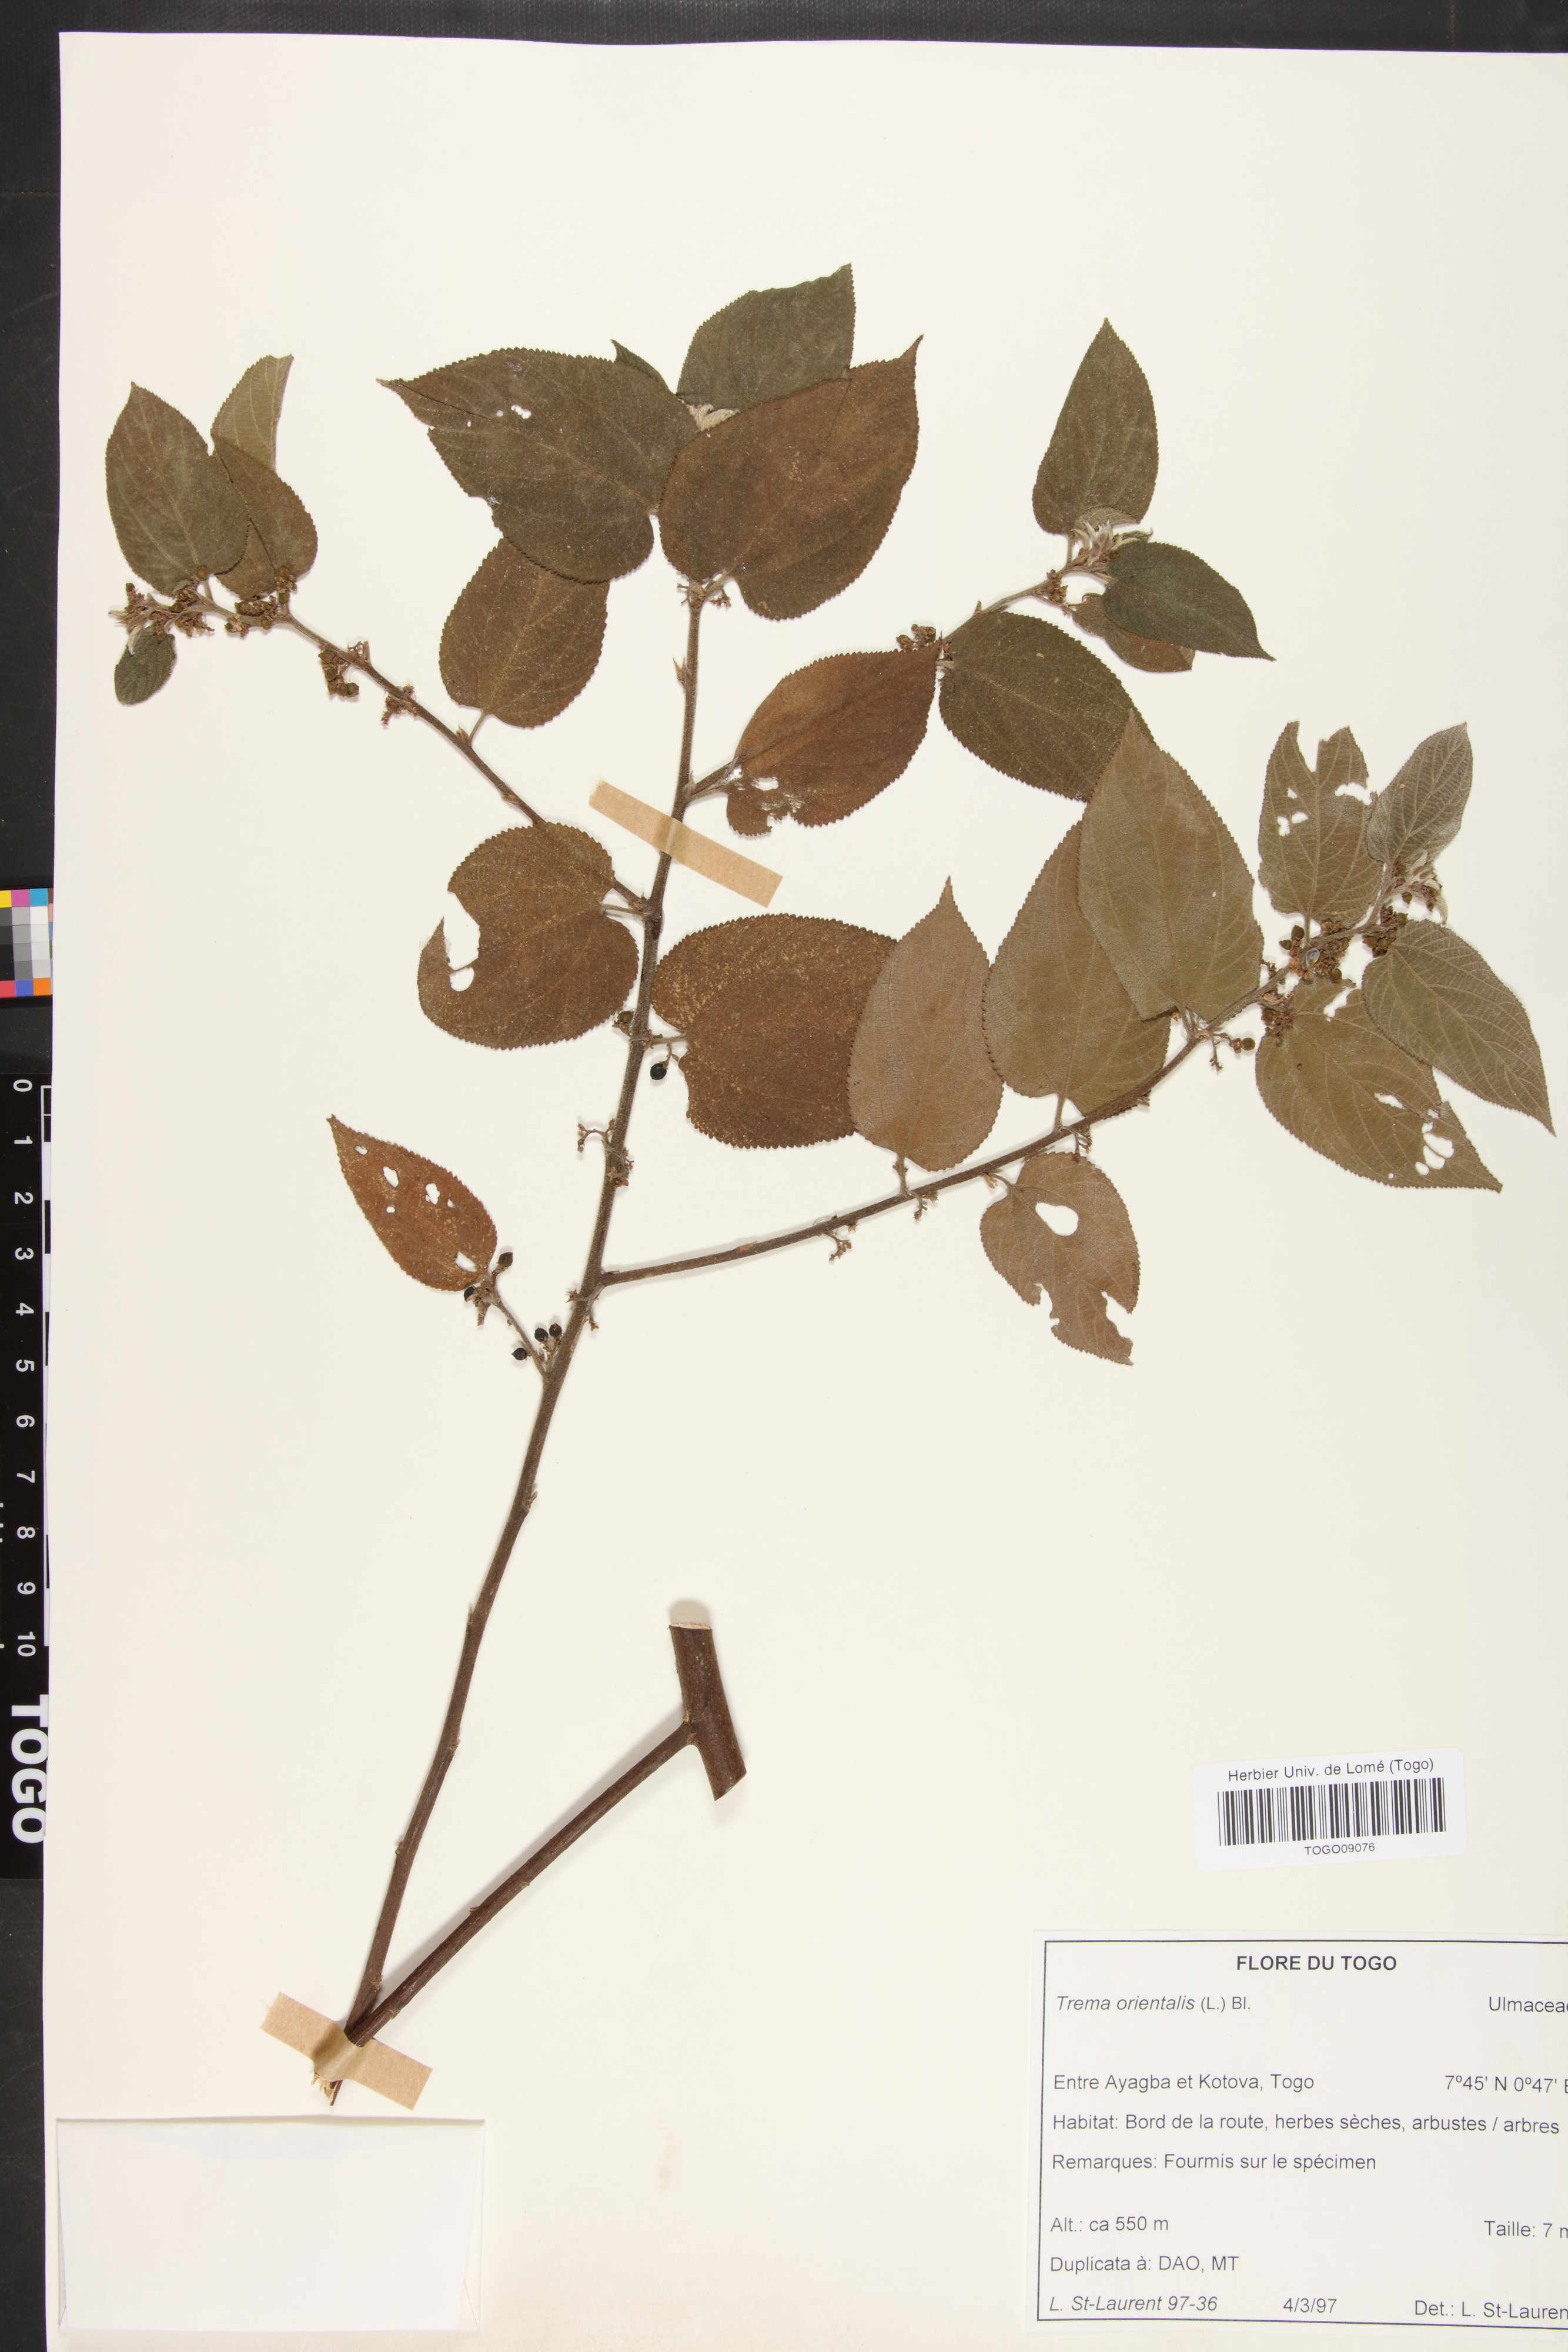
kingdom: Plantae
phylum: Tracheophyta
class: Magnoliopsida
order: Rosales
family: Cannabaceae
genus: Trema
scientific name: Trema orientale
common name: Indian charcoal tree
